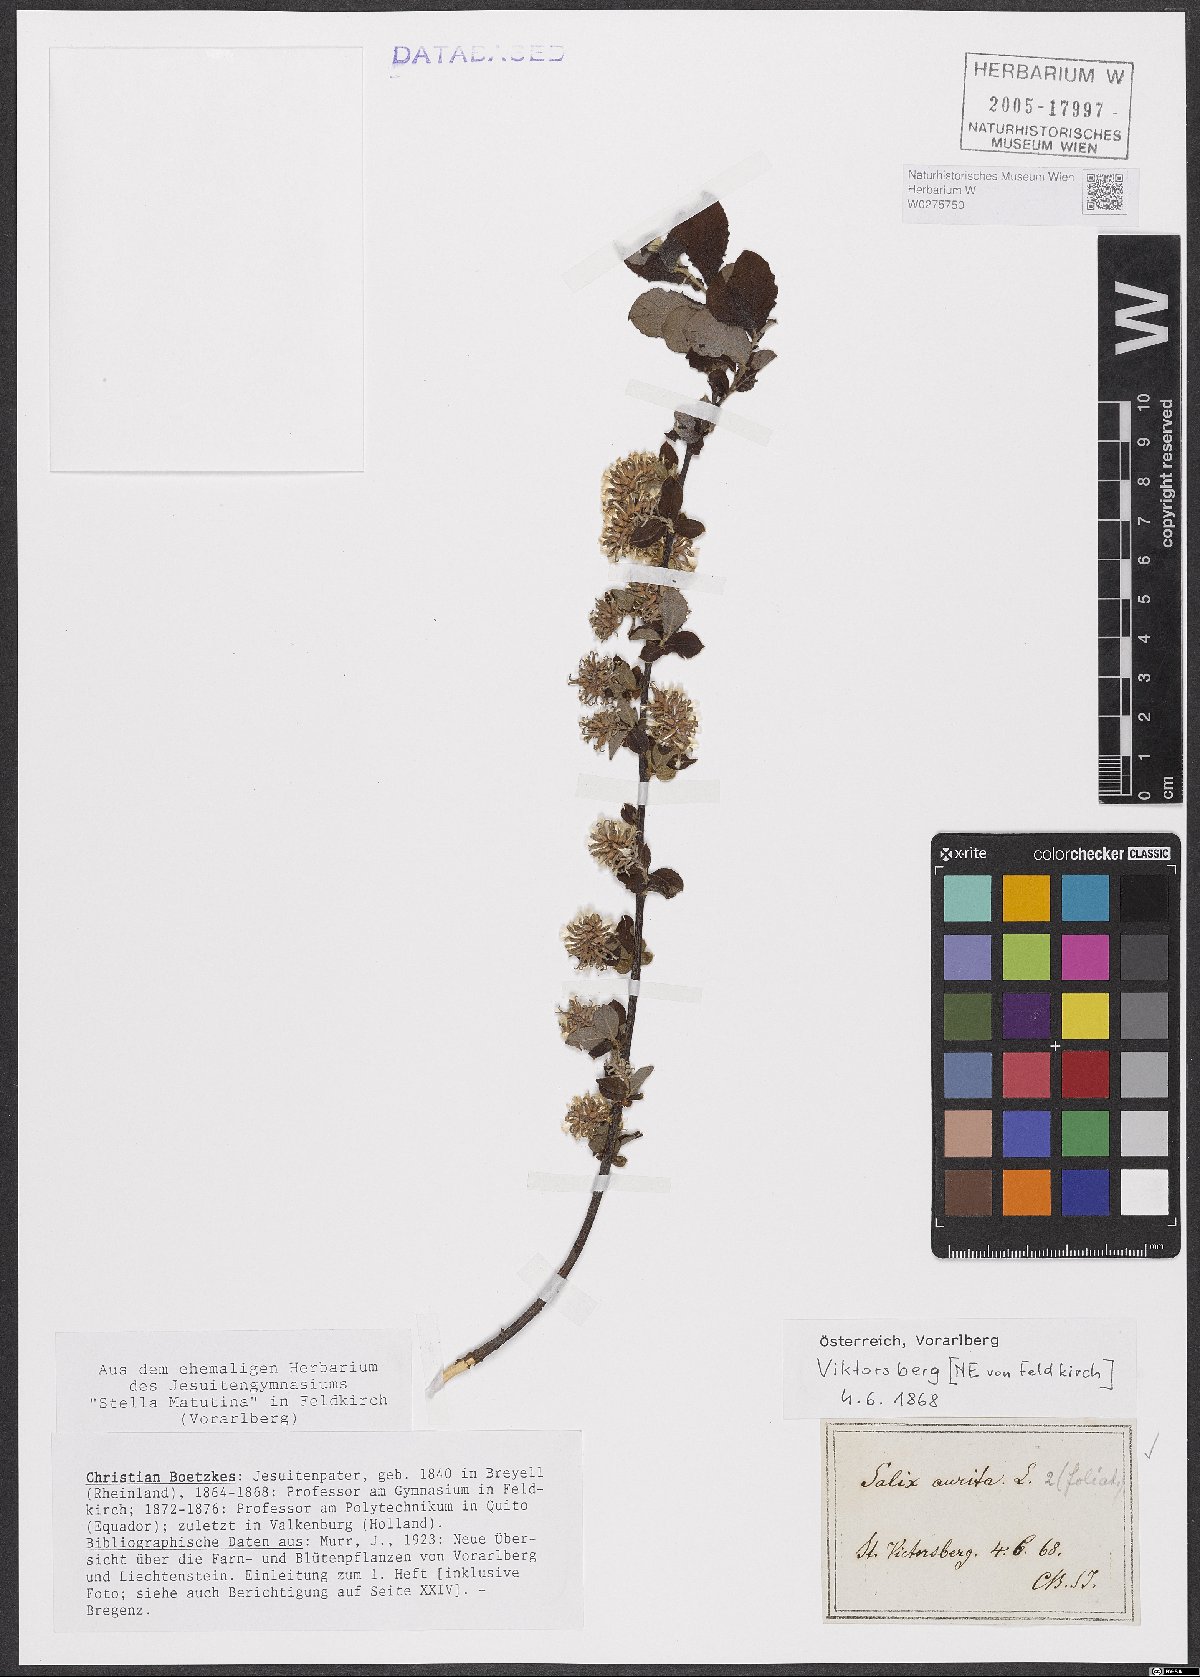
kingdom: Plantae
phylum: Tracheophyta
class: Magnoliopsida
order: Malpighiales
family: Salicaceae
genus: Salix
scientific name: Salix aurita
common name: Eared willow
